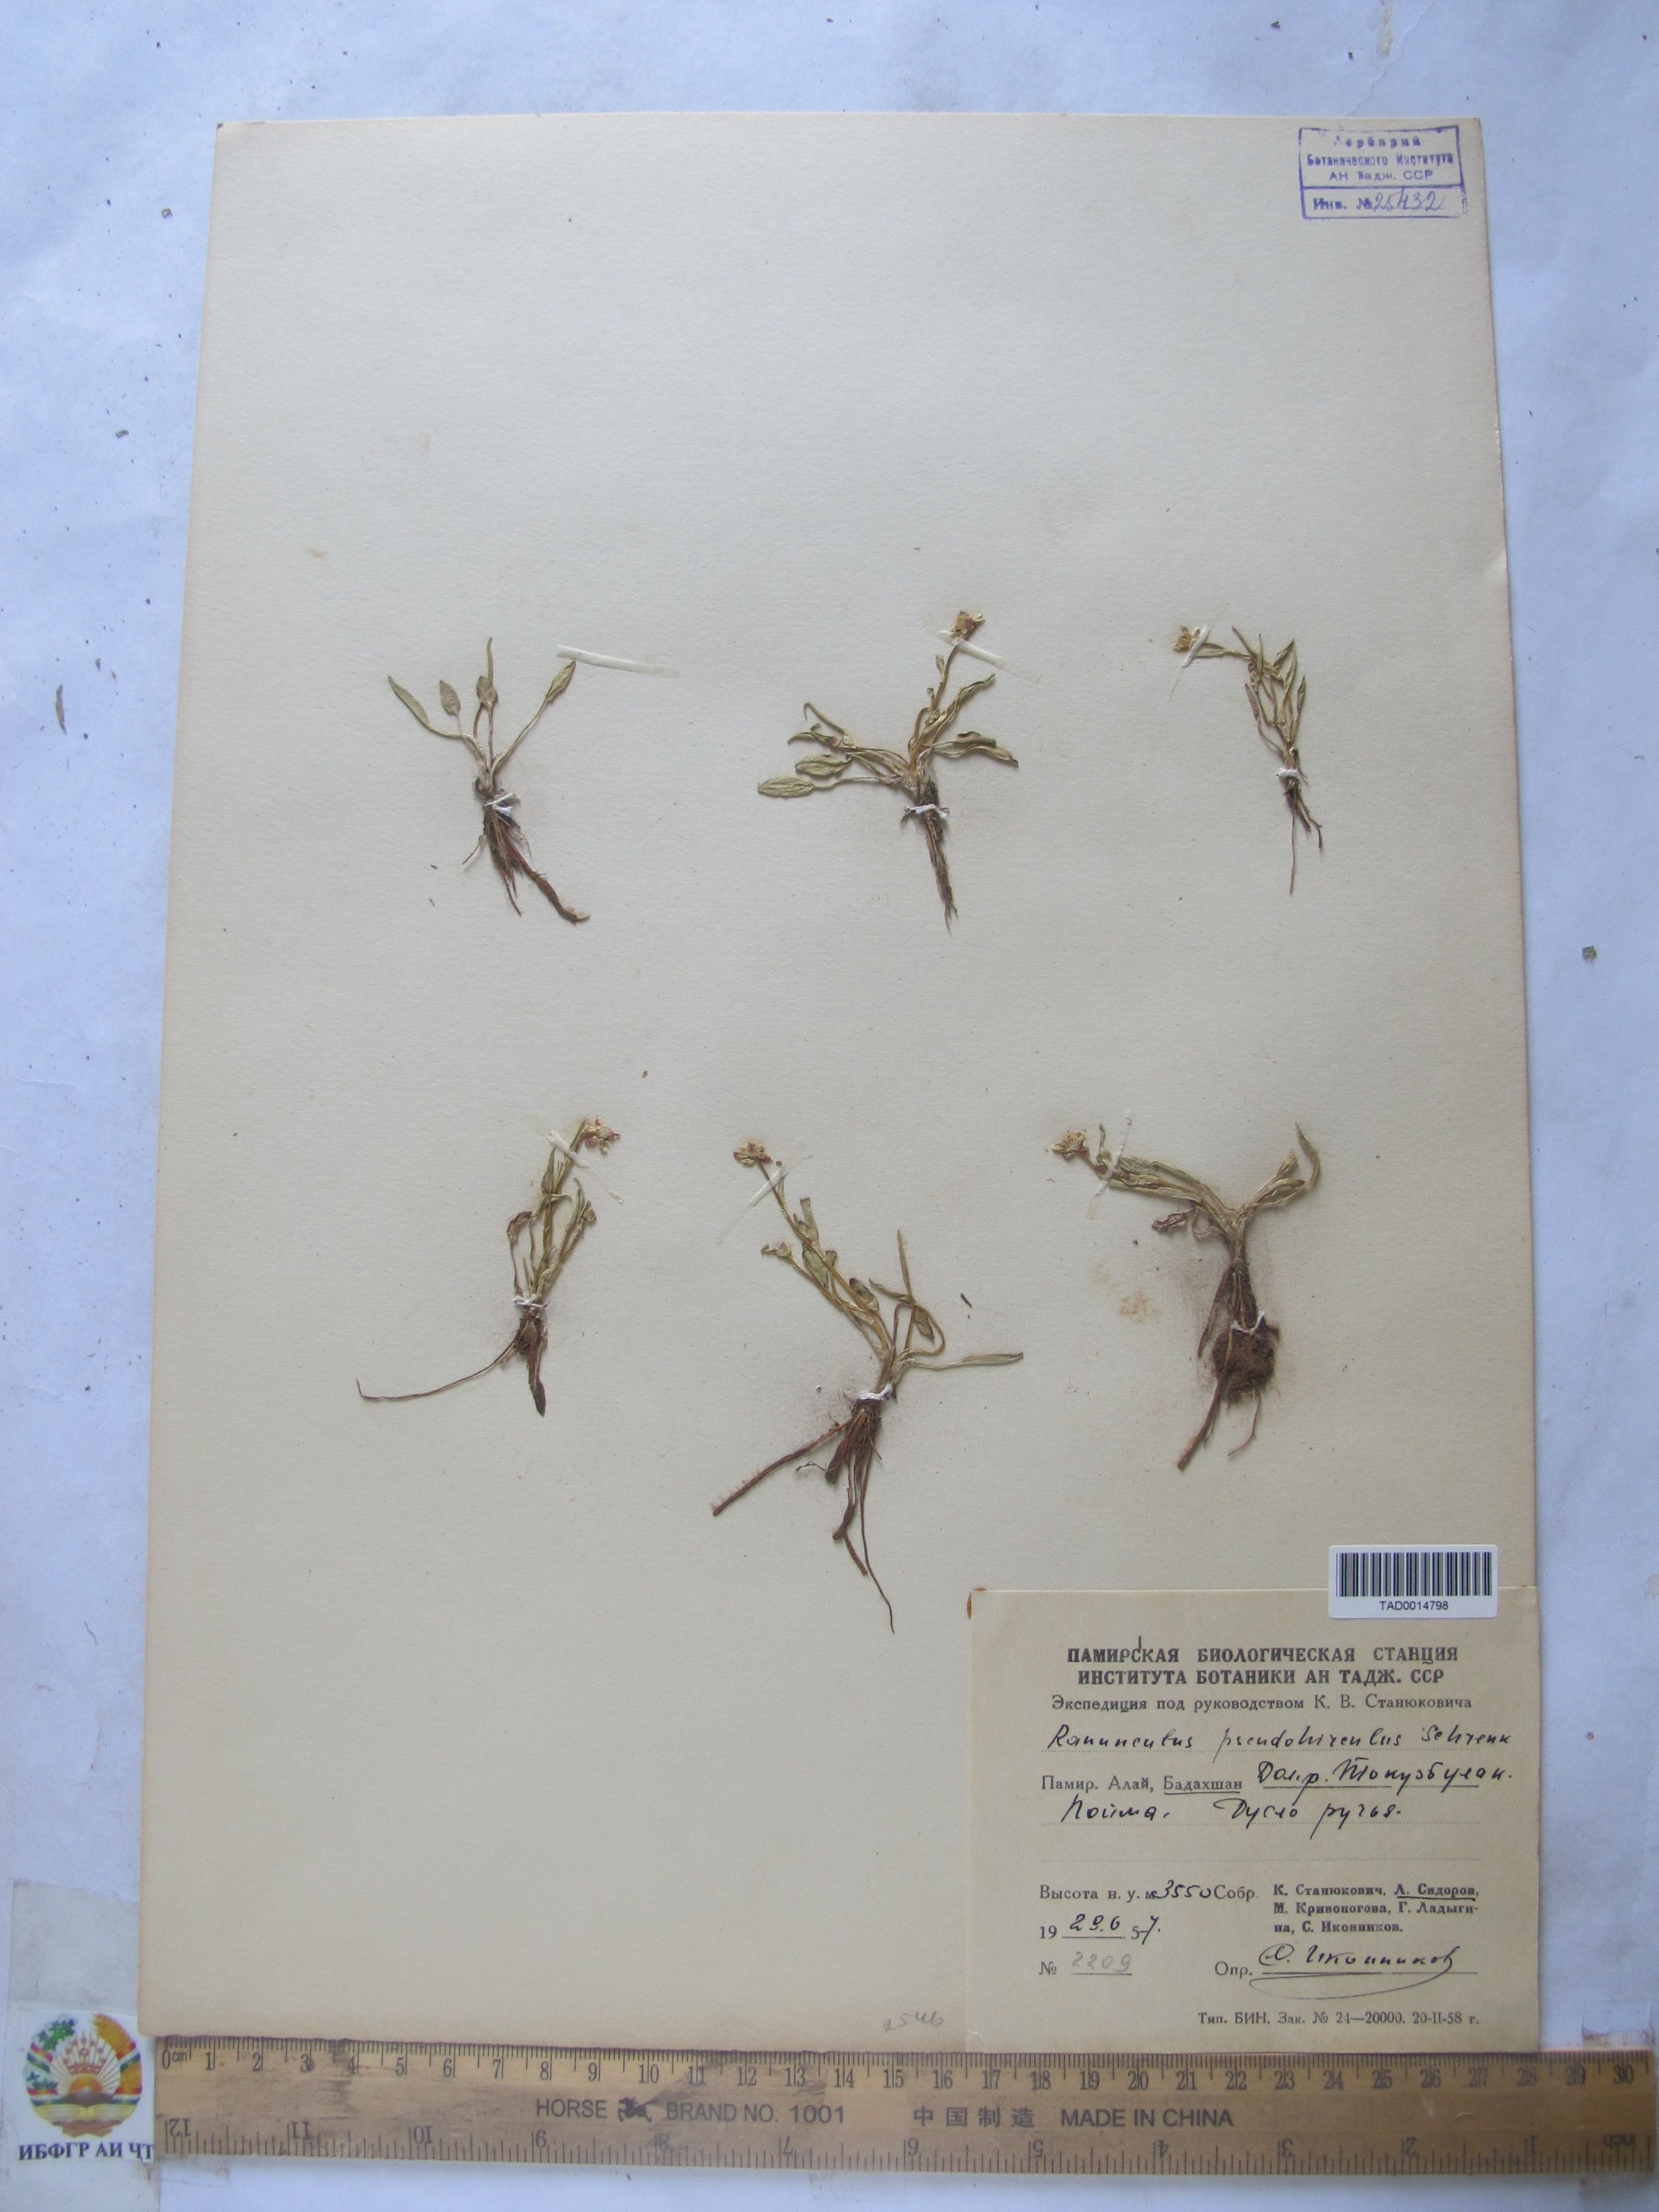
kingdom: Plantae
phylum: Tracheophyta
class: Magnoliopsida
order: Ranunculales
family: Ranunculaceae
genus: Ranunculus
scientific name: Ranunculus pseudohirculus
